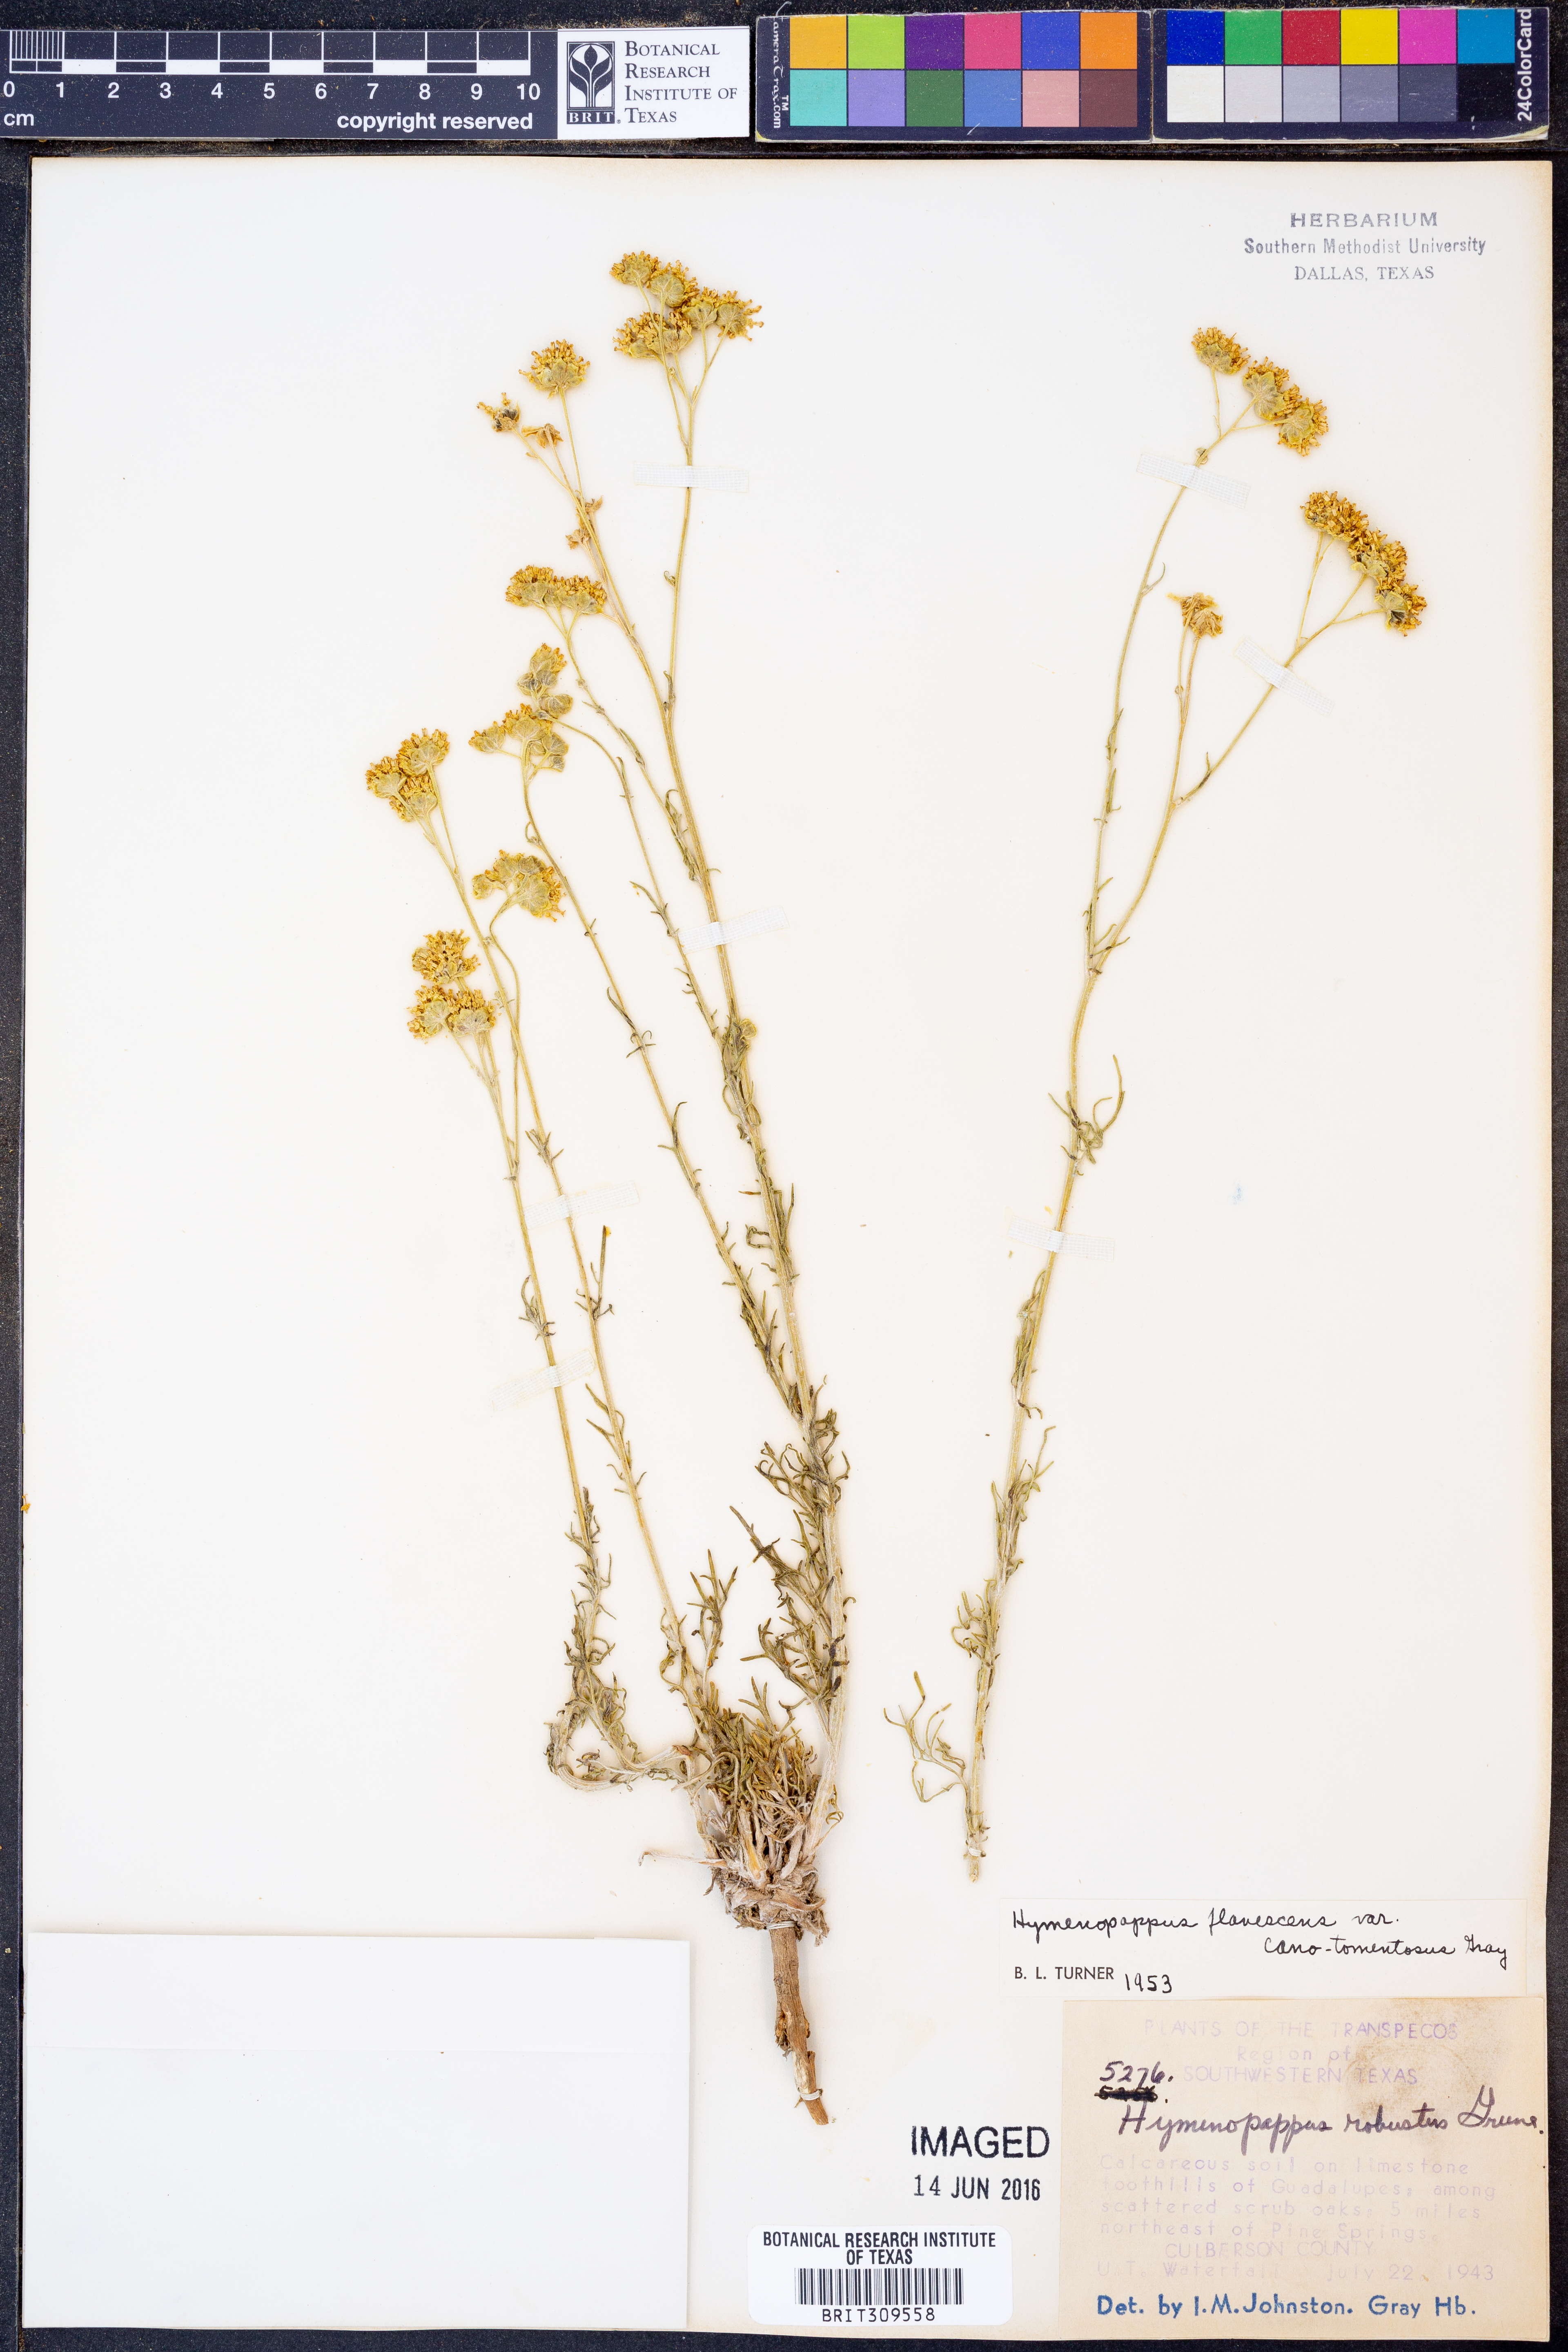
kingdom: Plantae
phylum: Tracheophyta
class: Magnoliopsida
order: Asterales
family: Asteraceae
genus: Hymenopappus
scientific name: Hymenopappus flavescens
